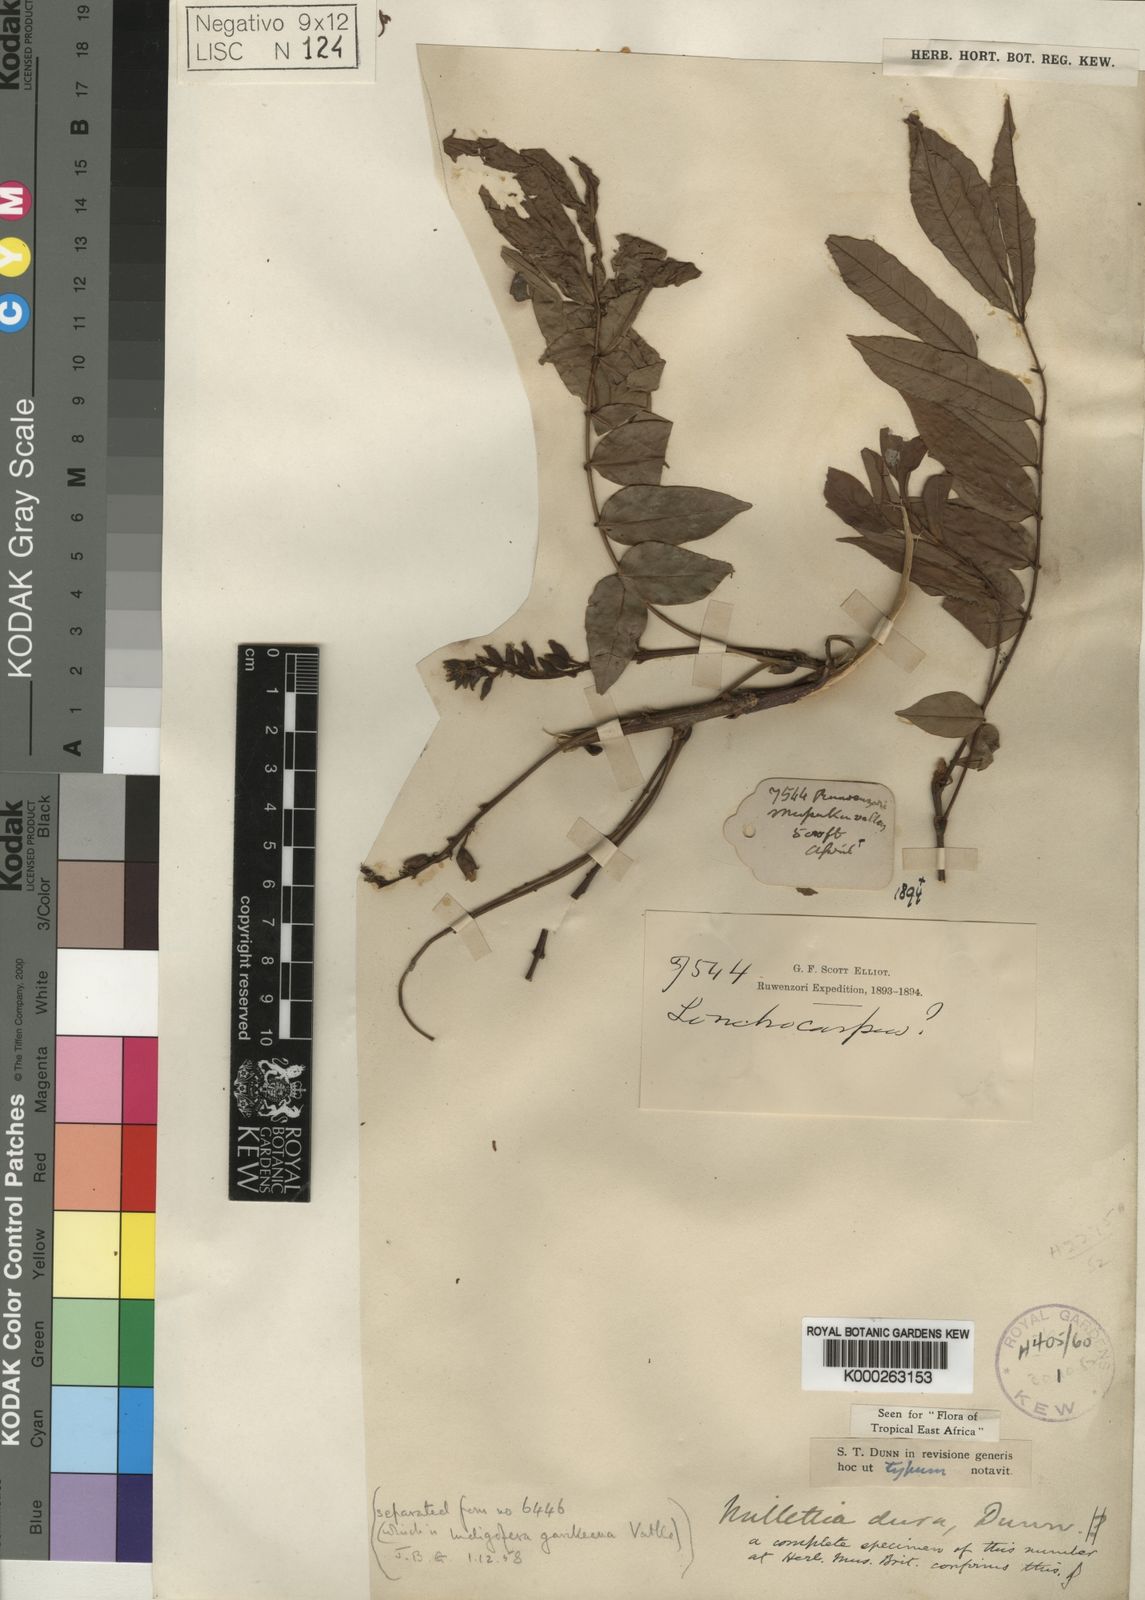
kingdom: Plantae
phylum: Tracheophyta
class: Magnoliopsida
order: Fabales
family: Fabaceae
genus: Millettia
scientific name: Millettia dura
